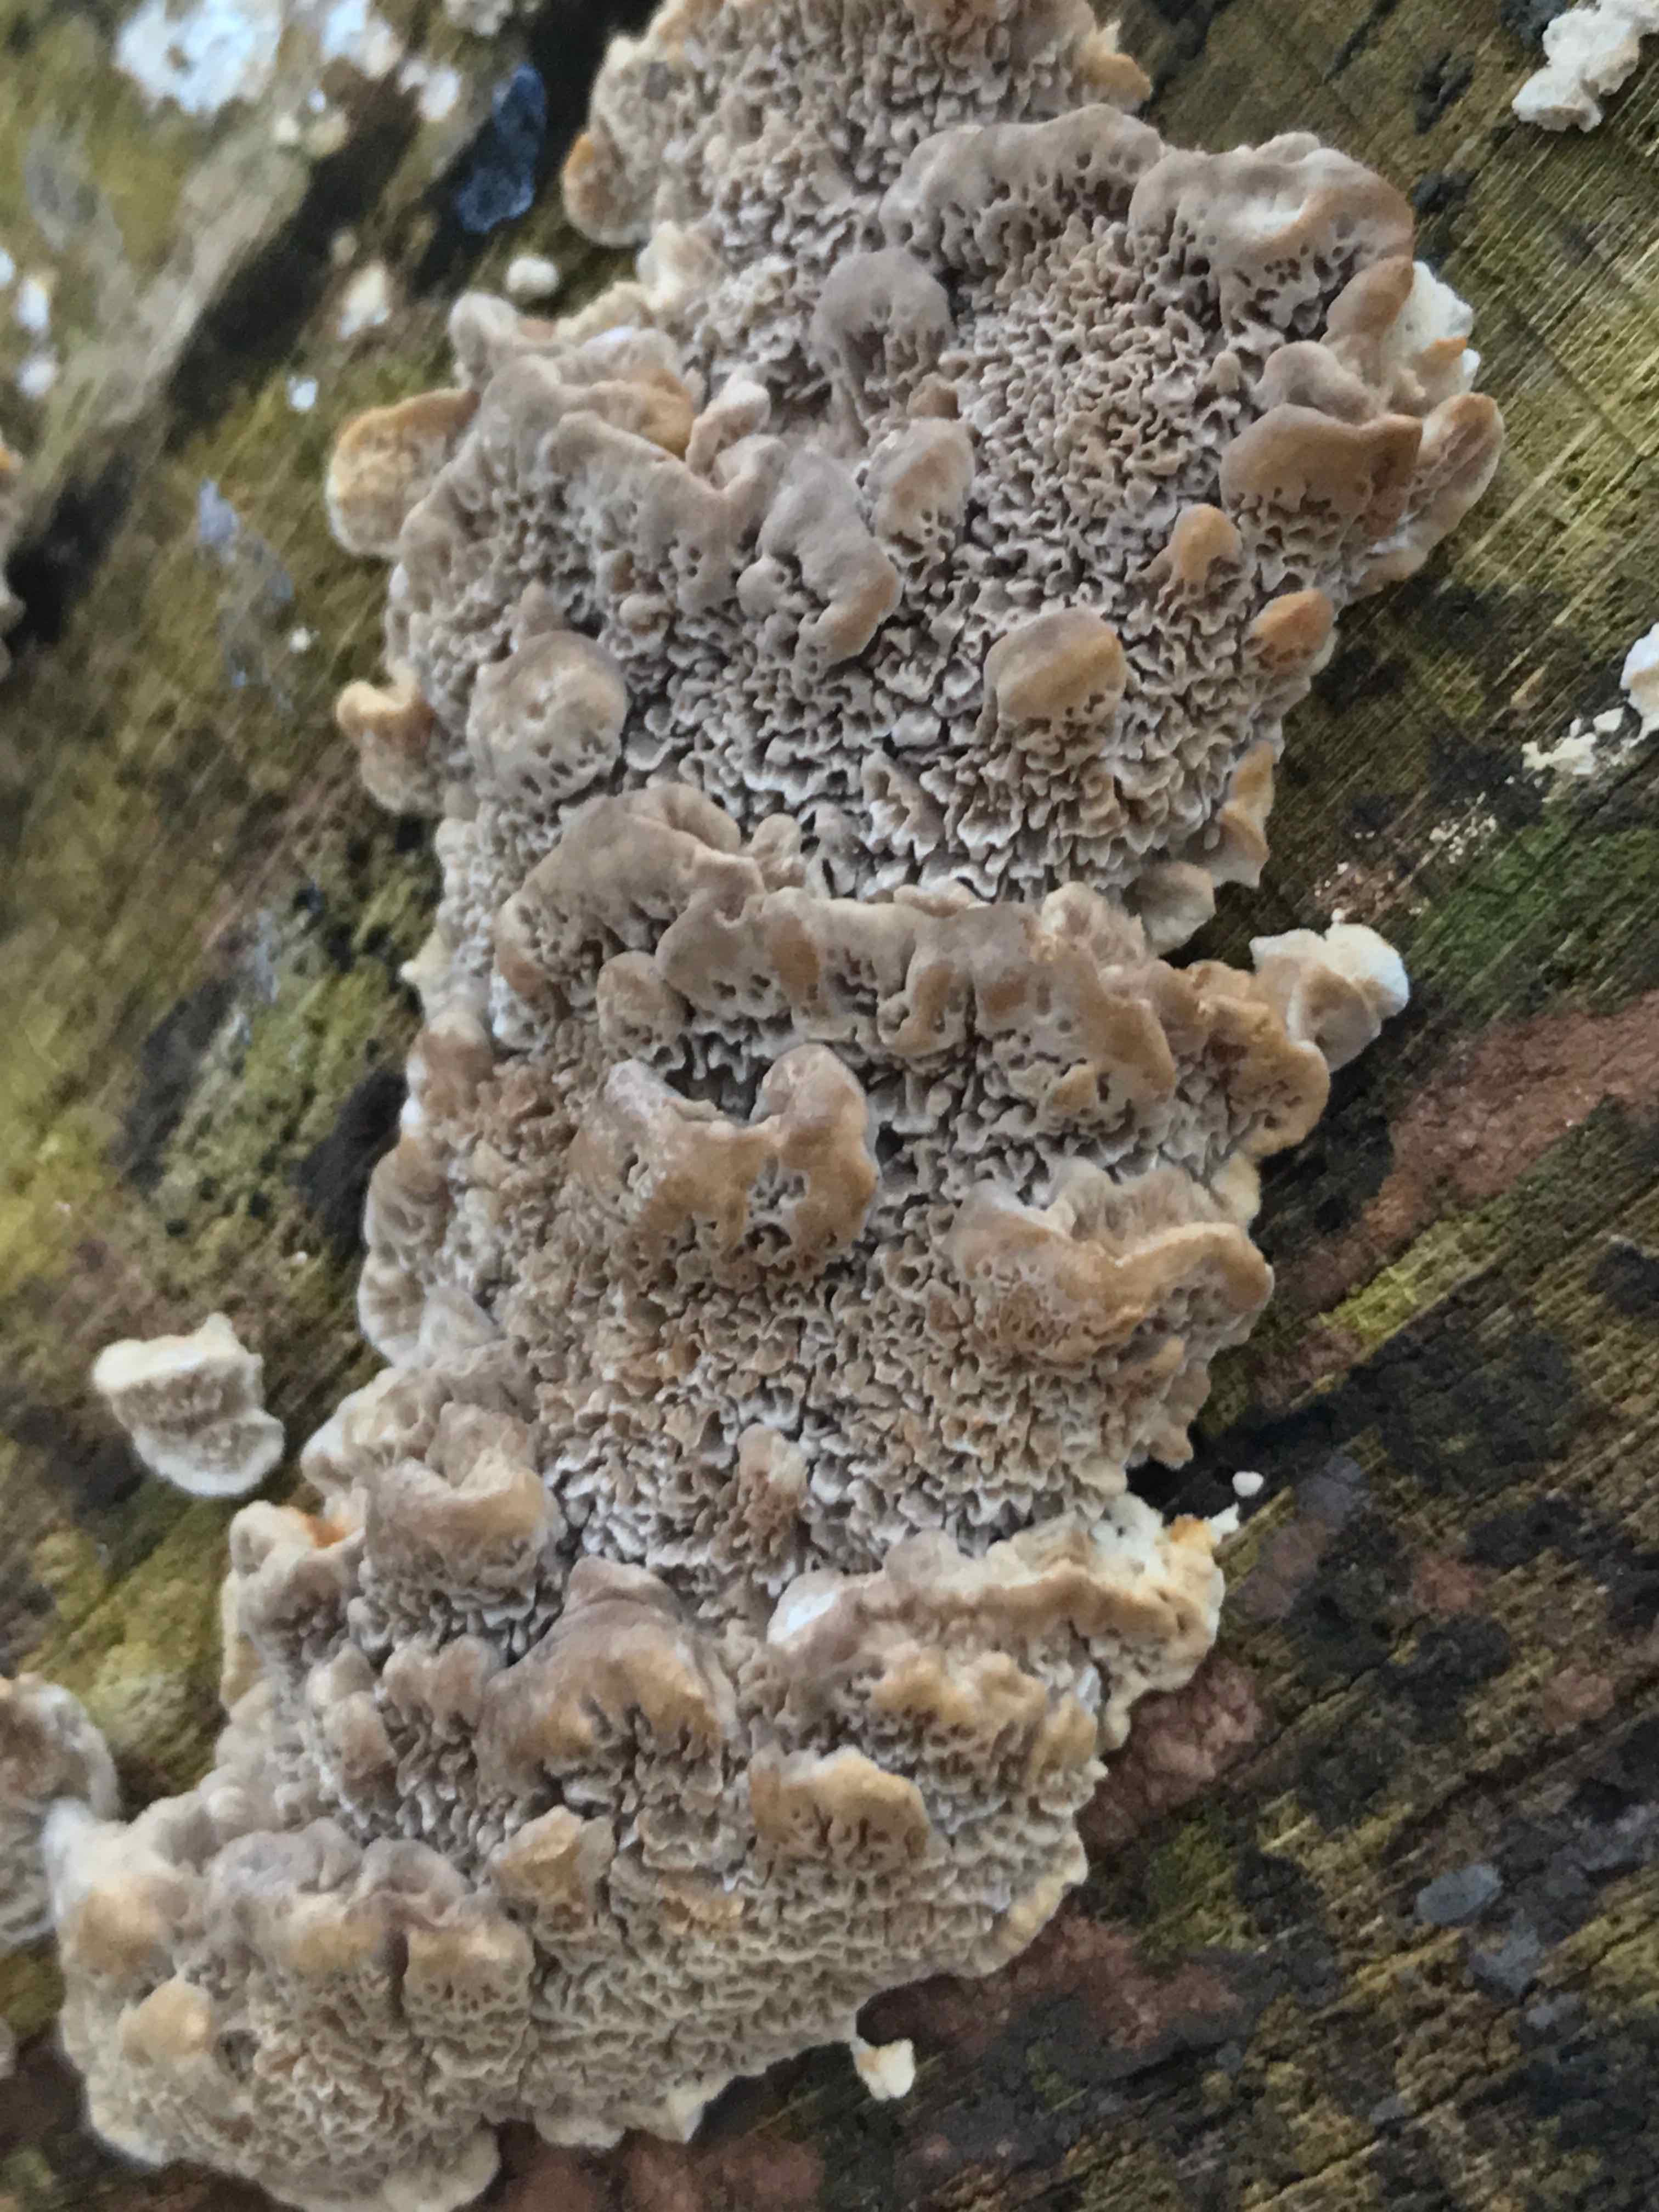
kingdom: Fungi
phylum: Basidiomycota
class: Agaricomycetes
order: Hymenochaetales
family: Hymenochaetaceae
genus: Mensularia
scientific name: Mensularia nodulosa
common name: bøge-spejlporesvamp
